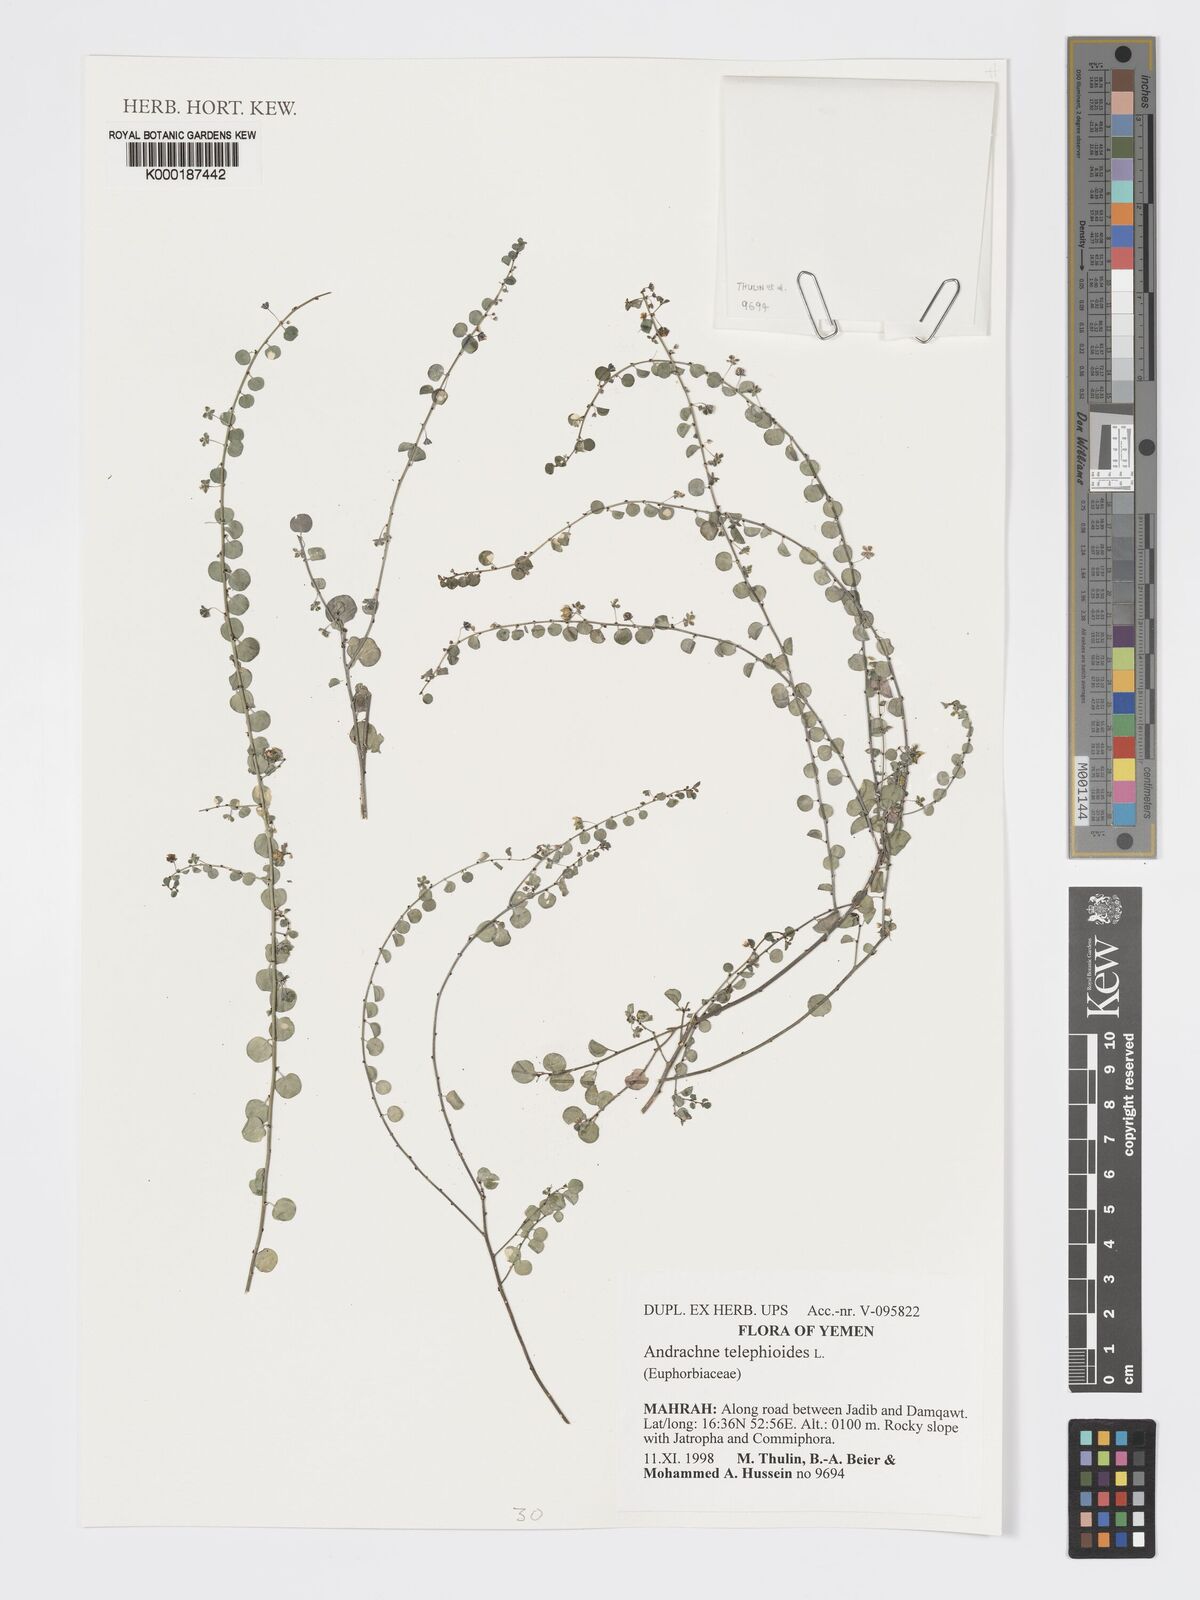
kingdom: Plantae
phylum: Tracheophyta
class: Magnoliopsida
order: Malpighiales
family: Phyllanthaceae
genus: Andrachne
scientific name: Andrachne telephioides
